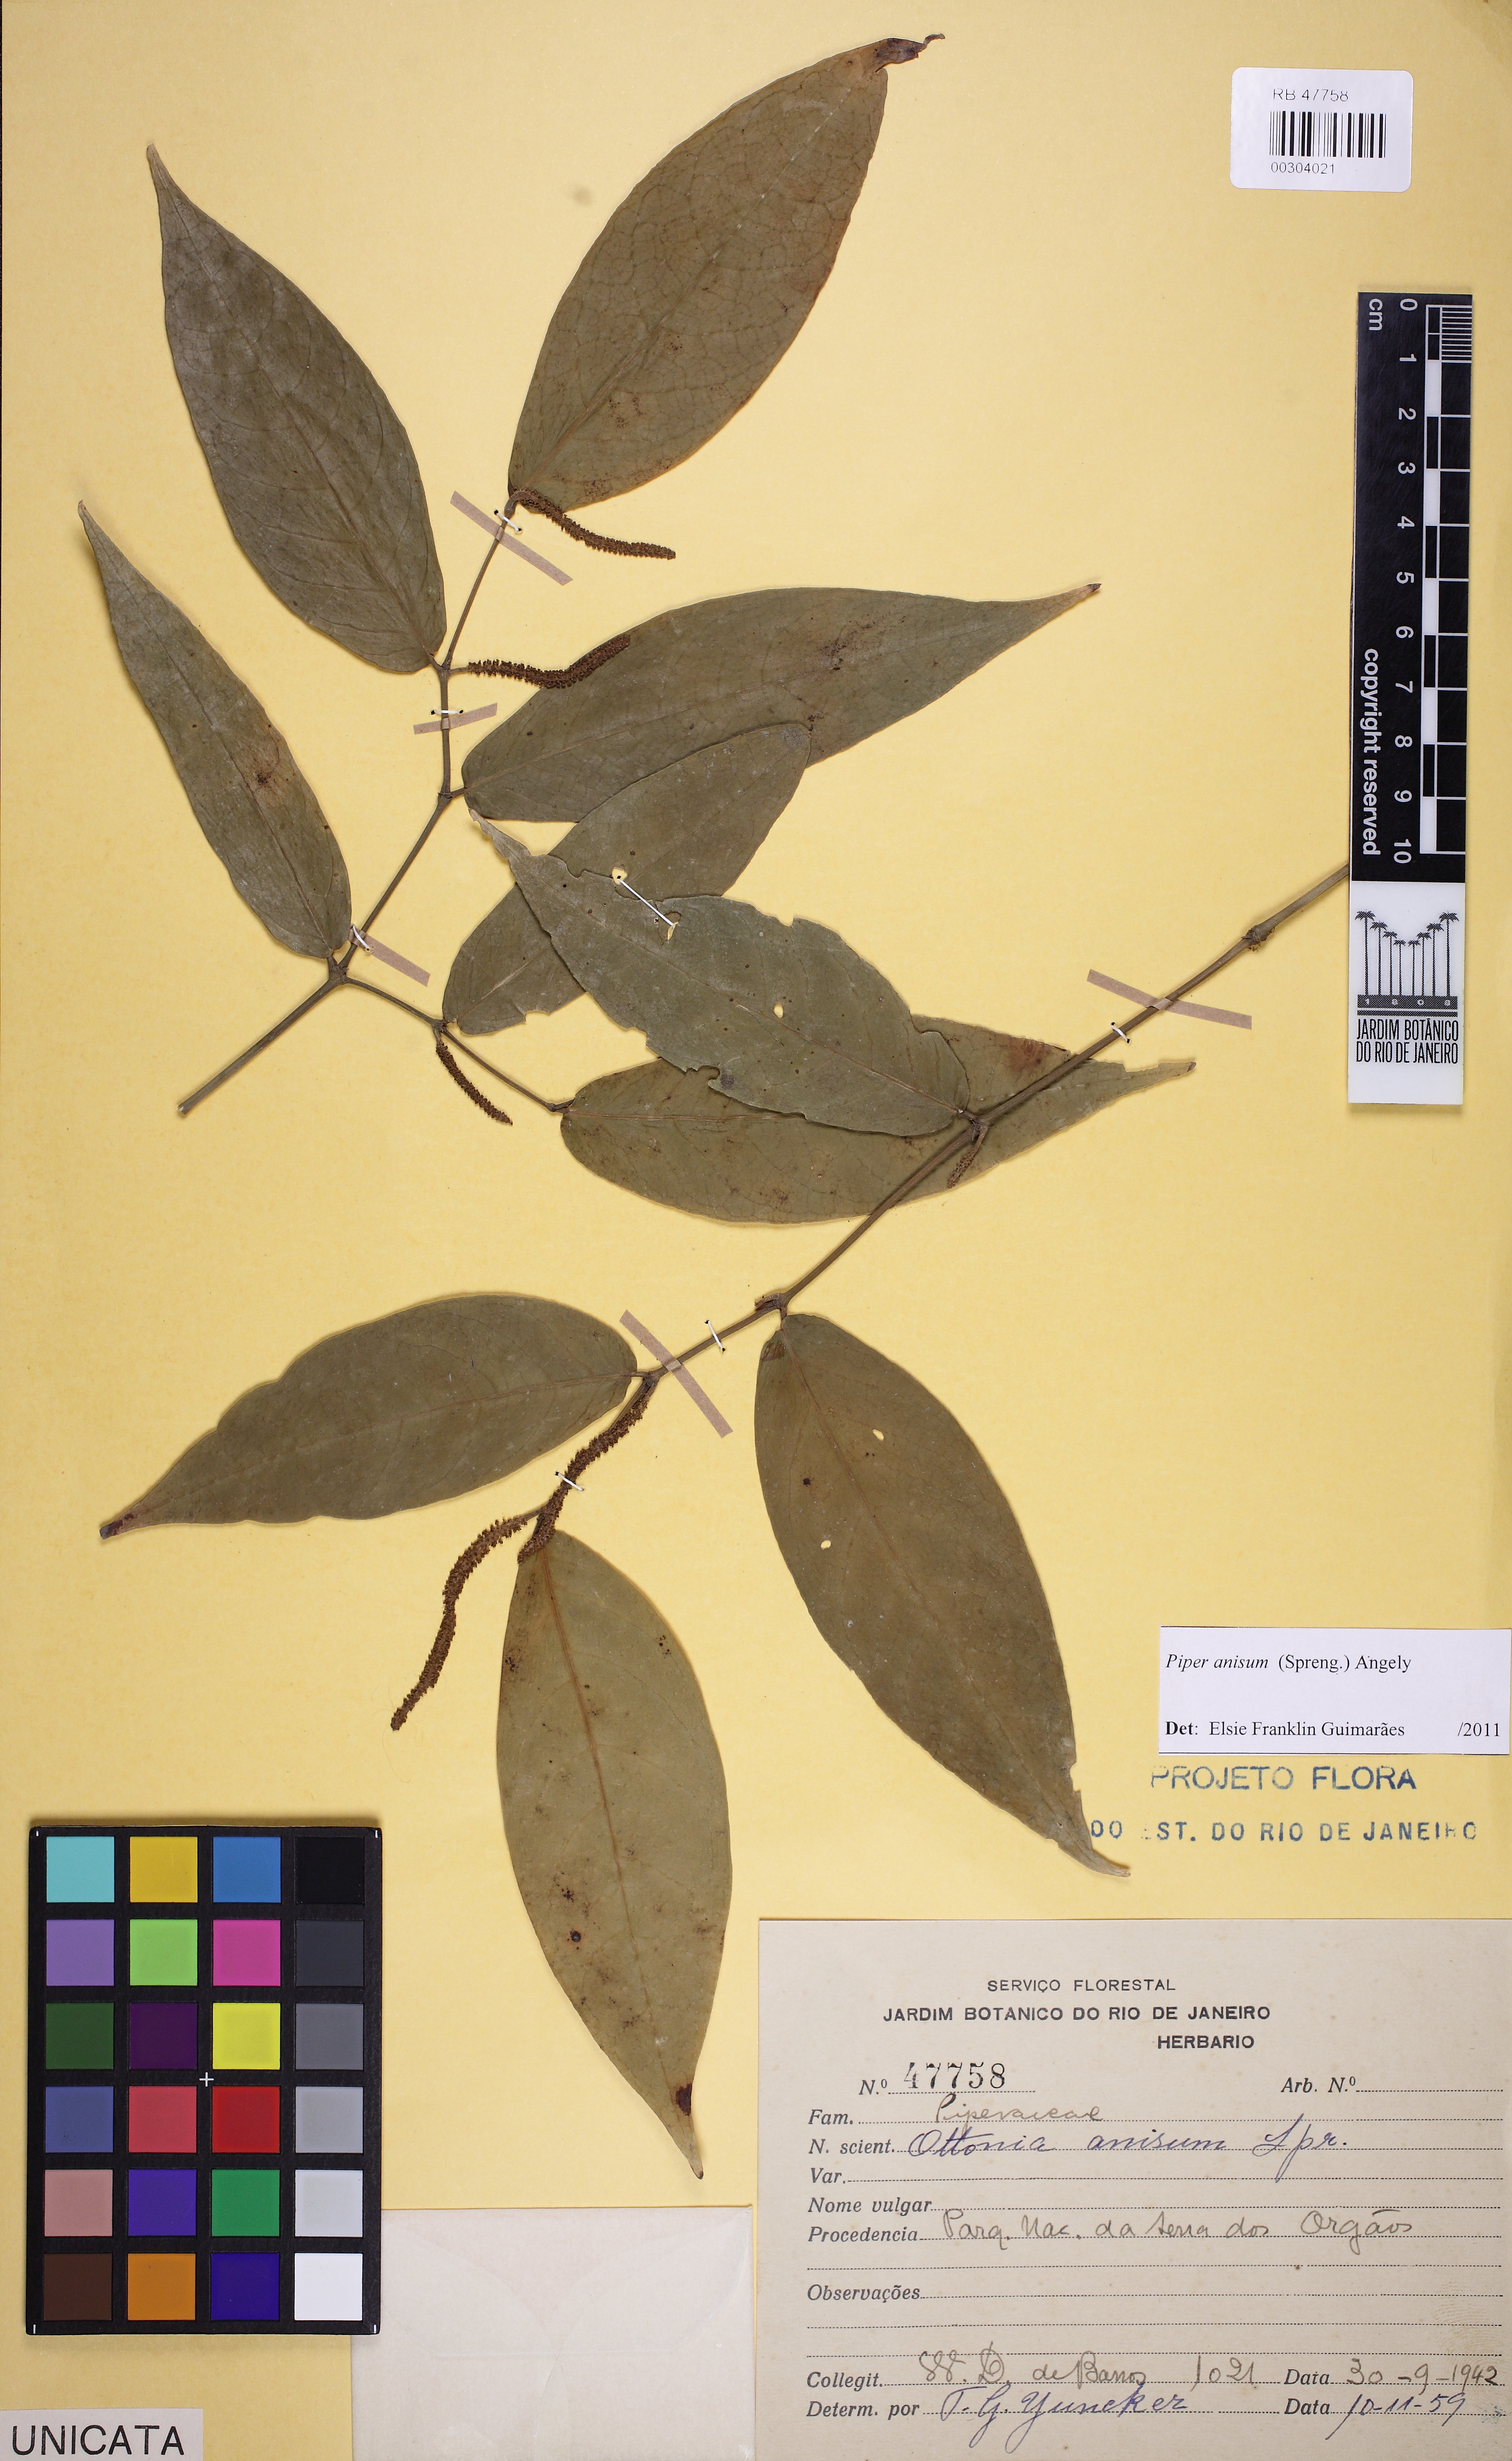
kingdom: Plantae
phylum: Tracheophyta
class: Magnoliopsida
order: Piperales
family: Piperaceae
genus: Piper
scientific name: Piper anisum
